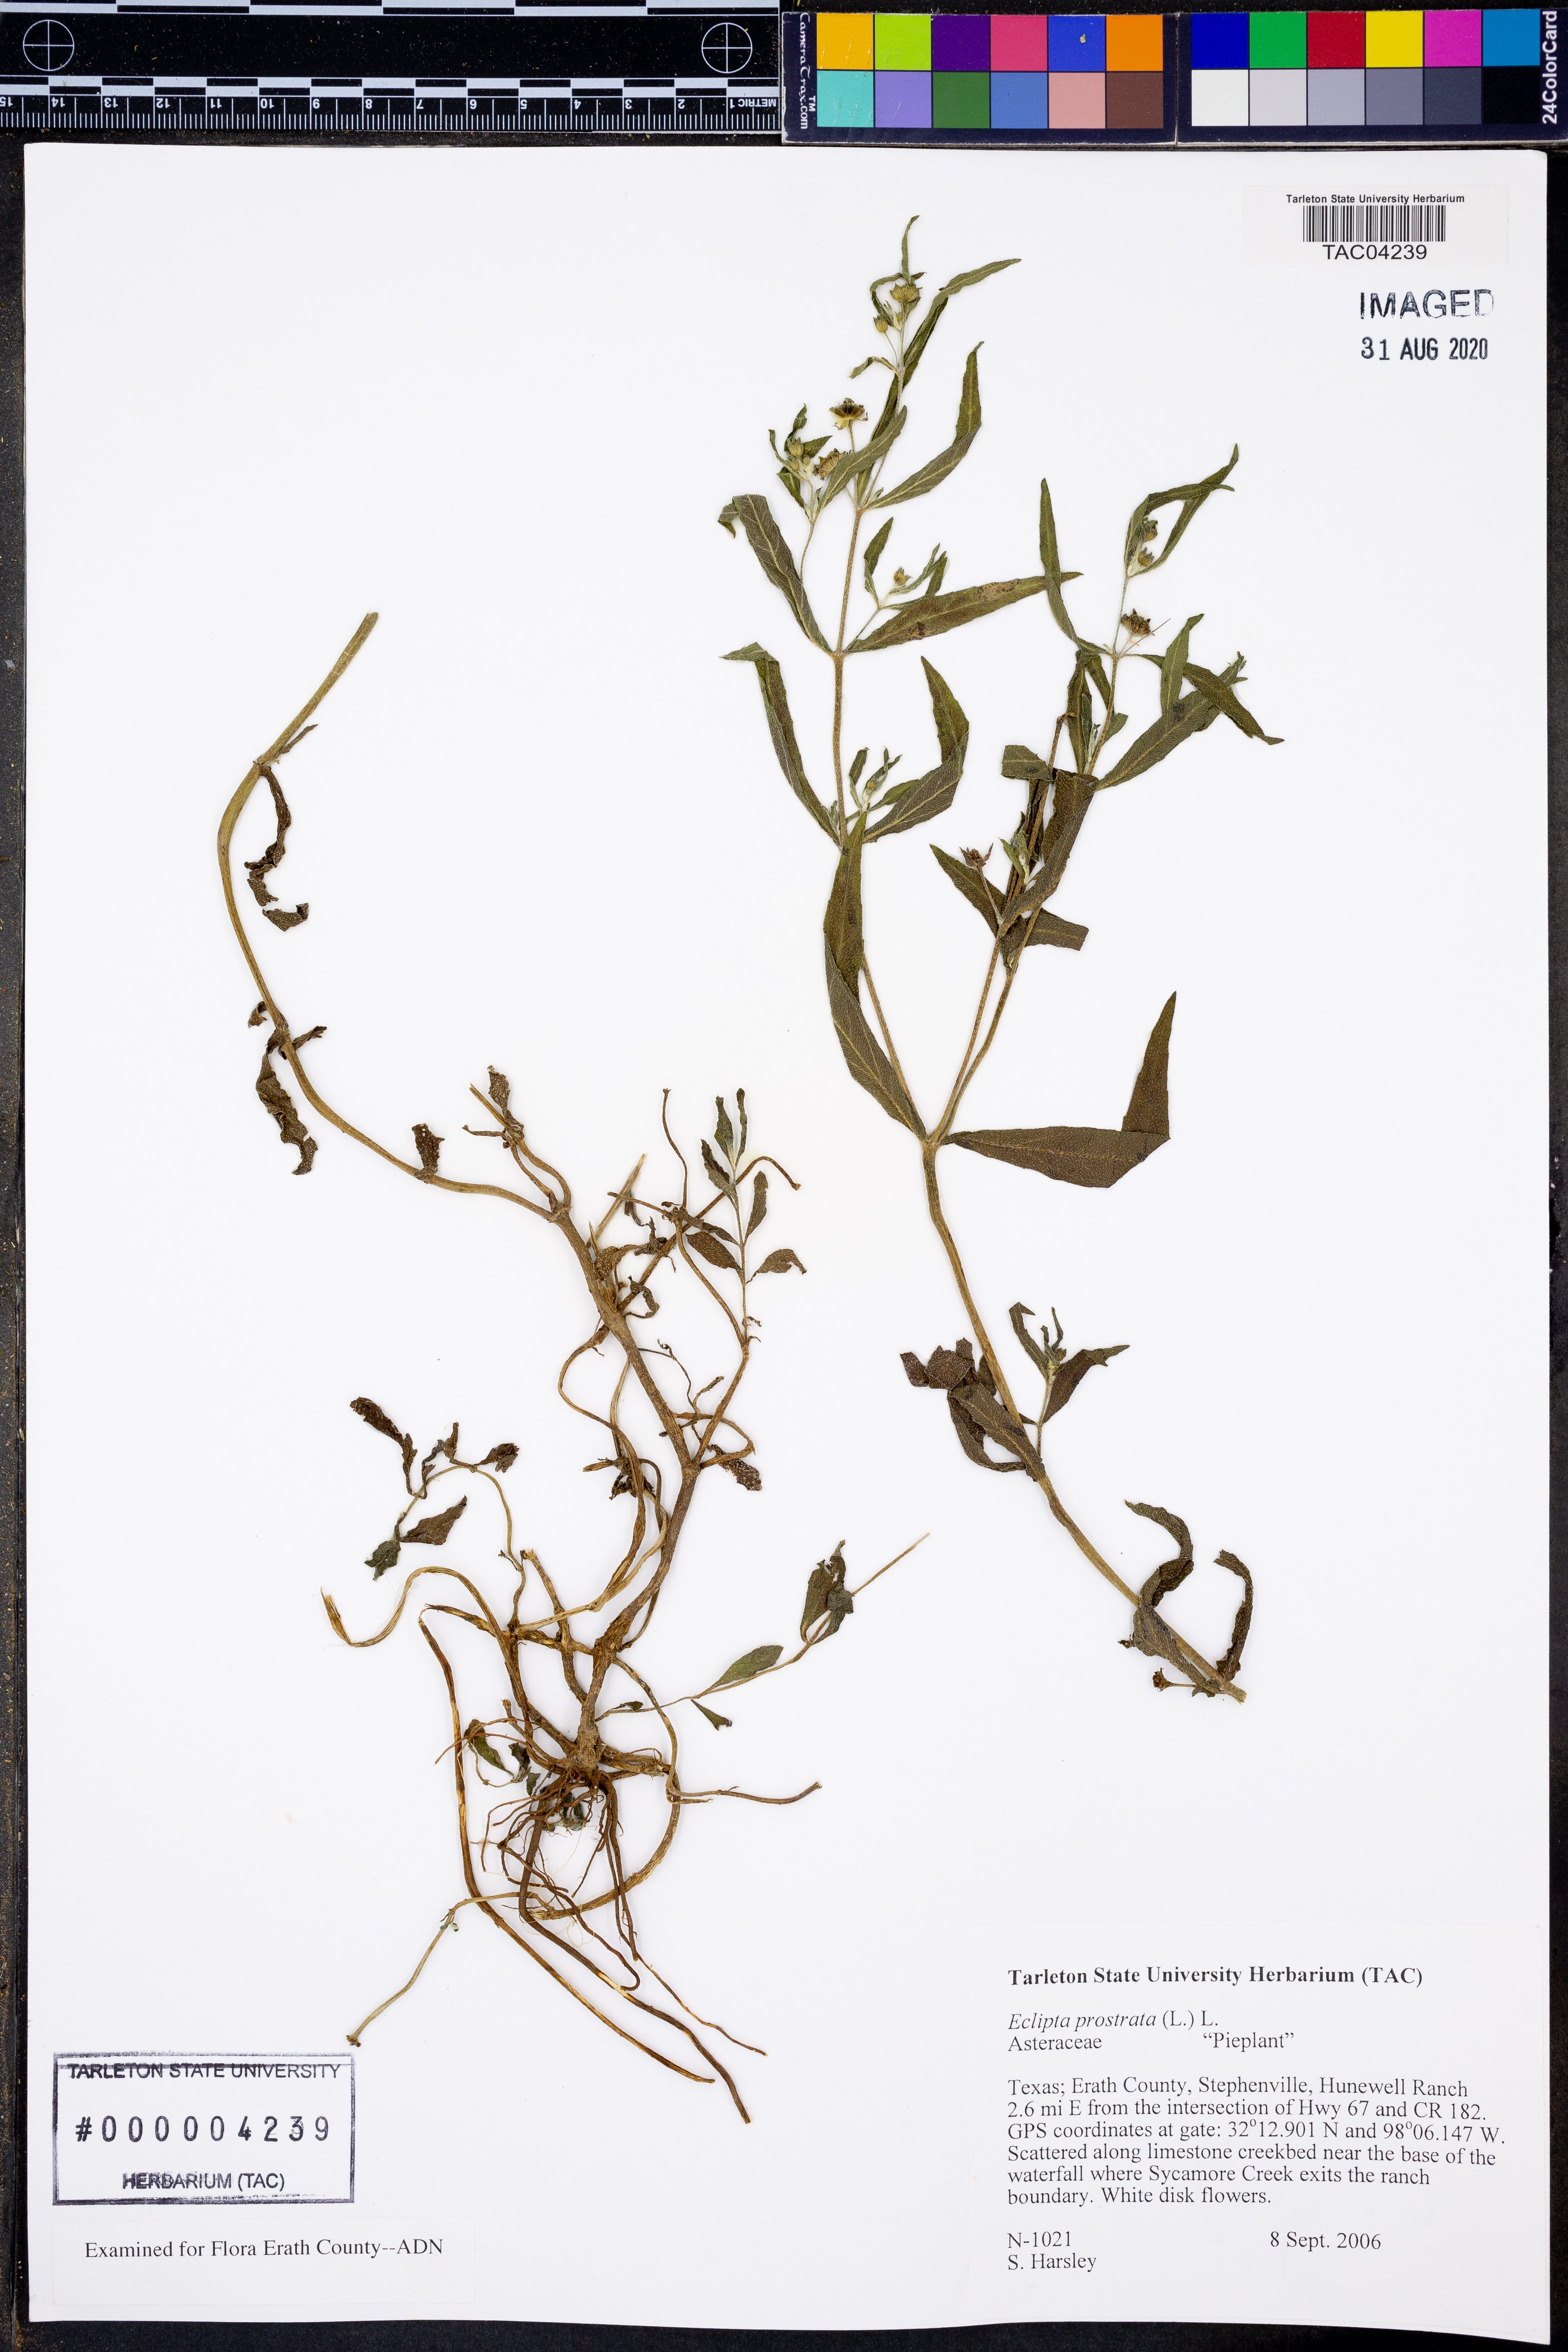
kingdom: Plantae
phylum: Tracheophyta
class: Magnoliopsida
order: Asterales
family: Asteraceae
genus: Eclipta
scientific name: Eclipta prostrata
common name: False daisy
